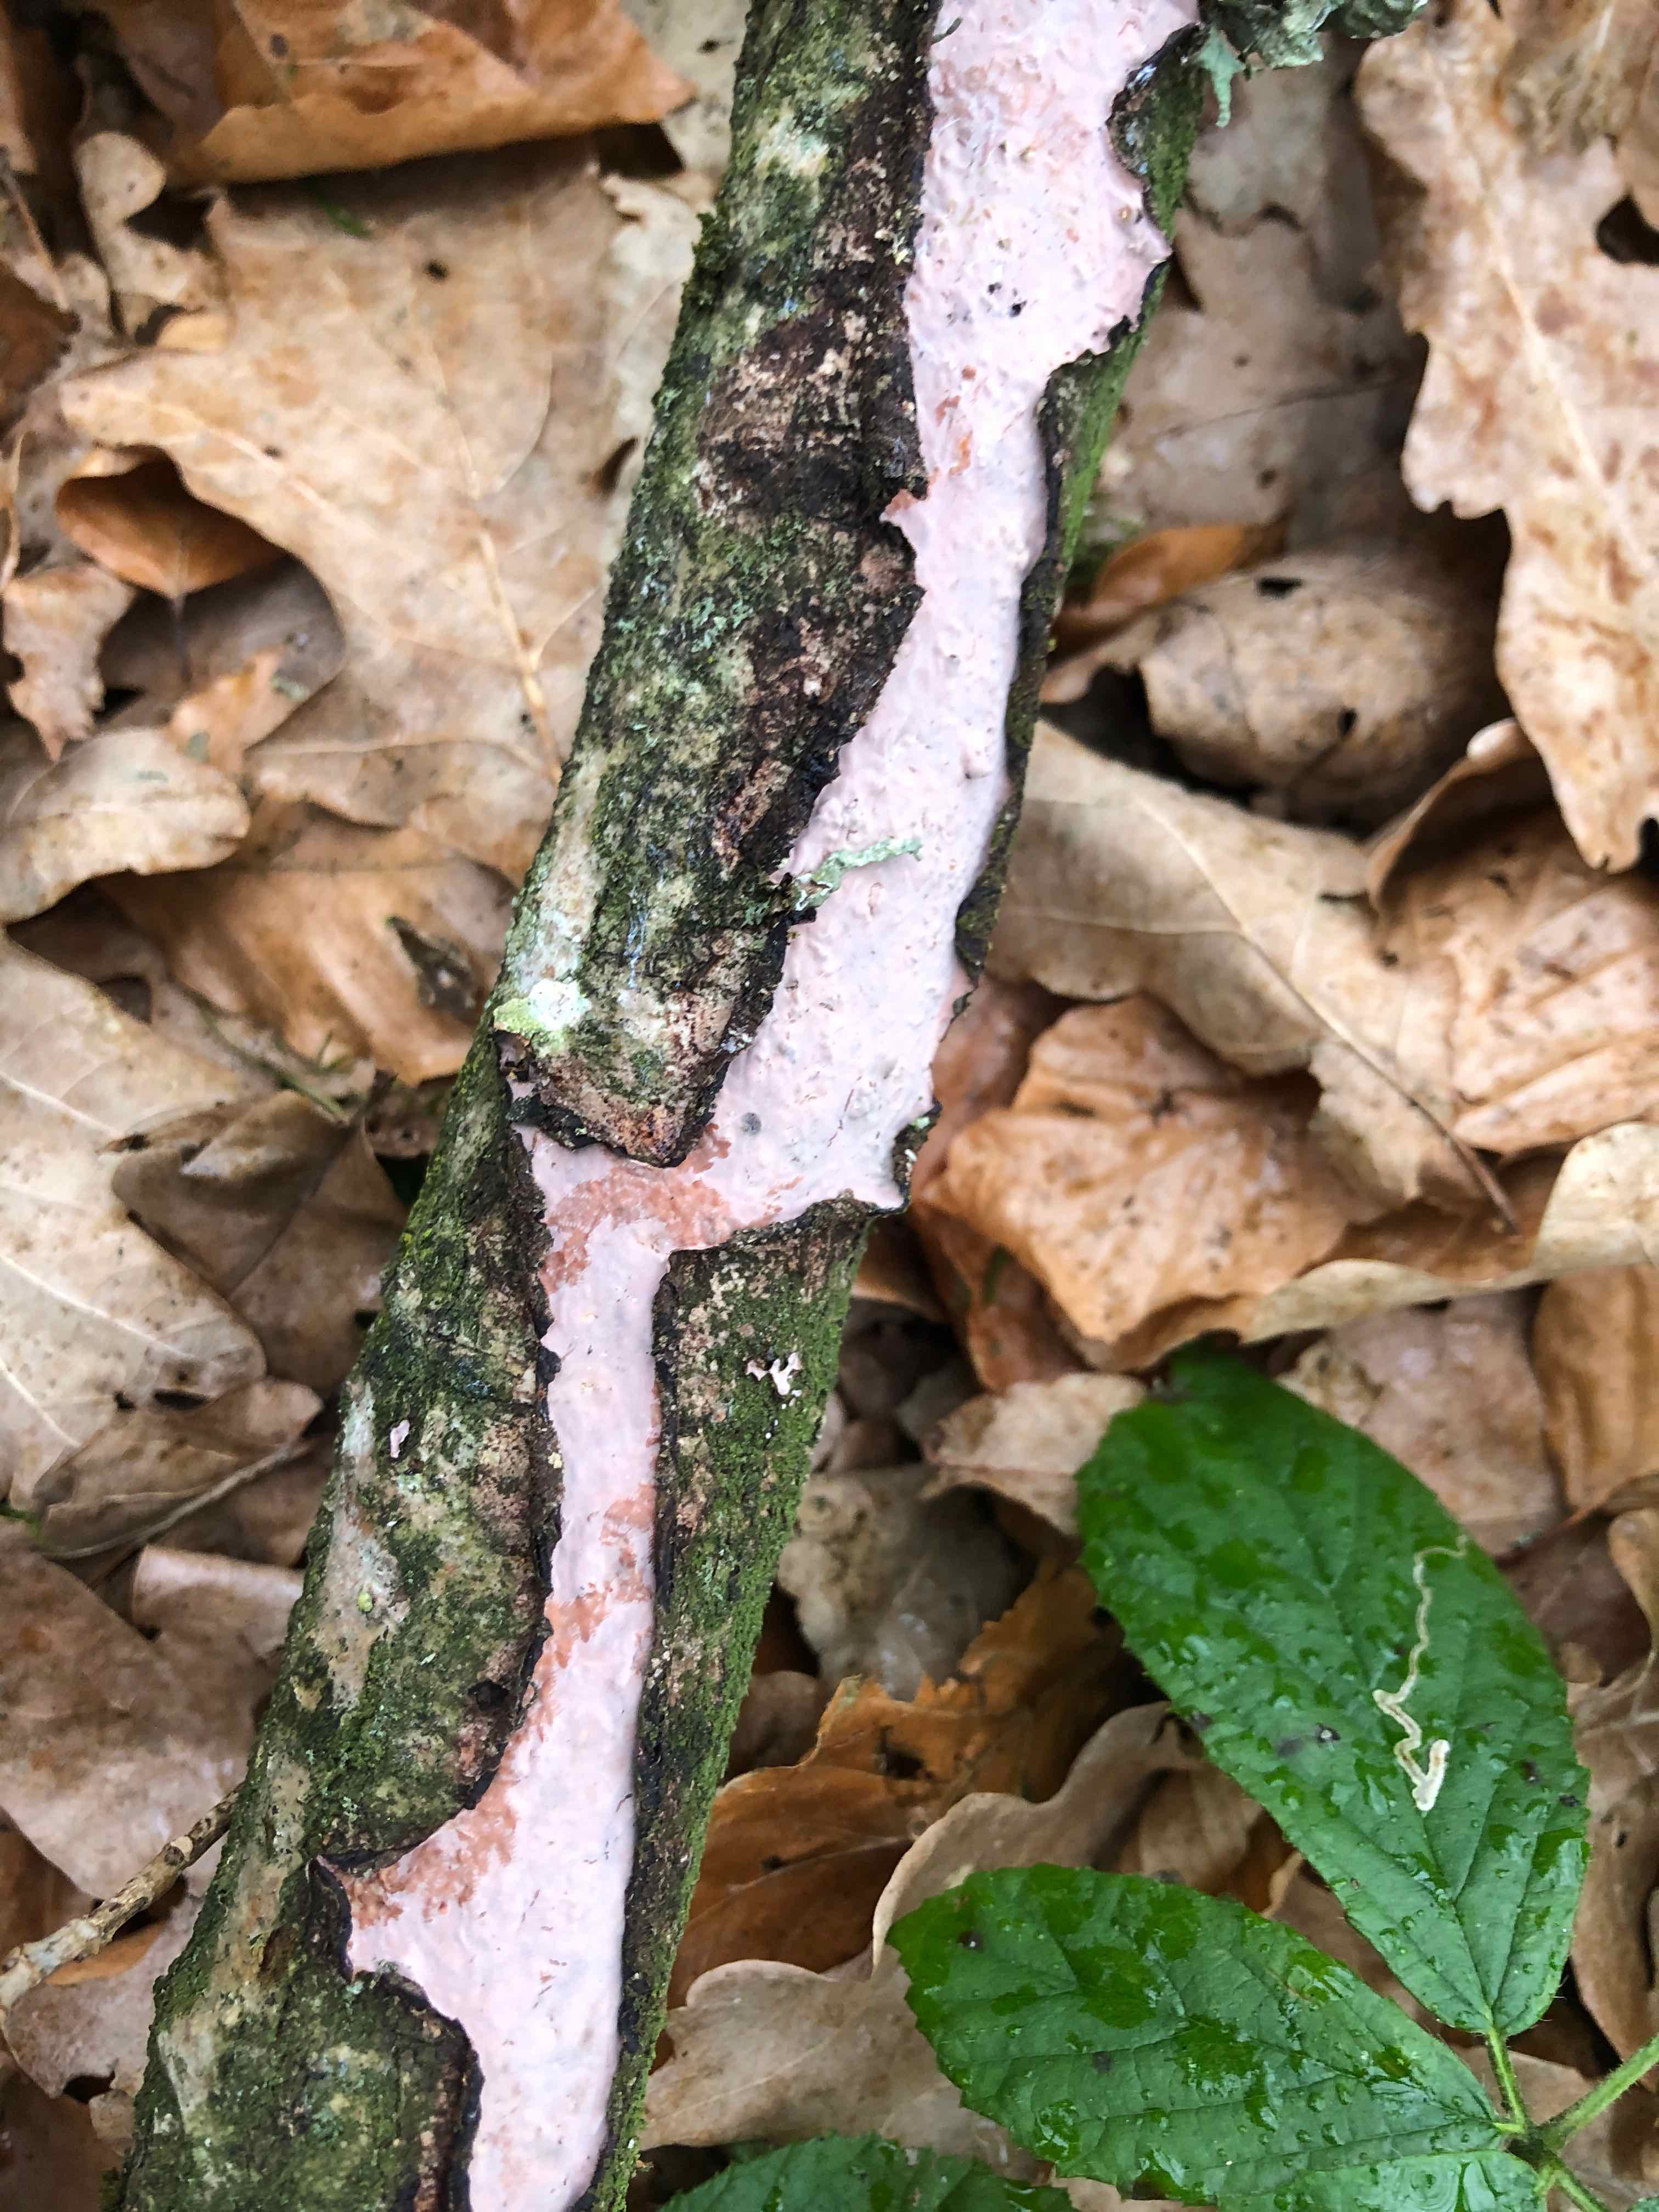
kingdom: Fungi
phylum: Basidiomycota
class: Agaricomycetes
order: Russulales
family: Peniophoraceae
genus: Peniophora
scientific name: Peniophora quercina
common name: ege-voksskind
